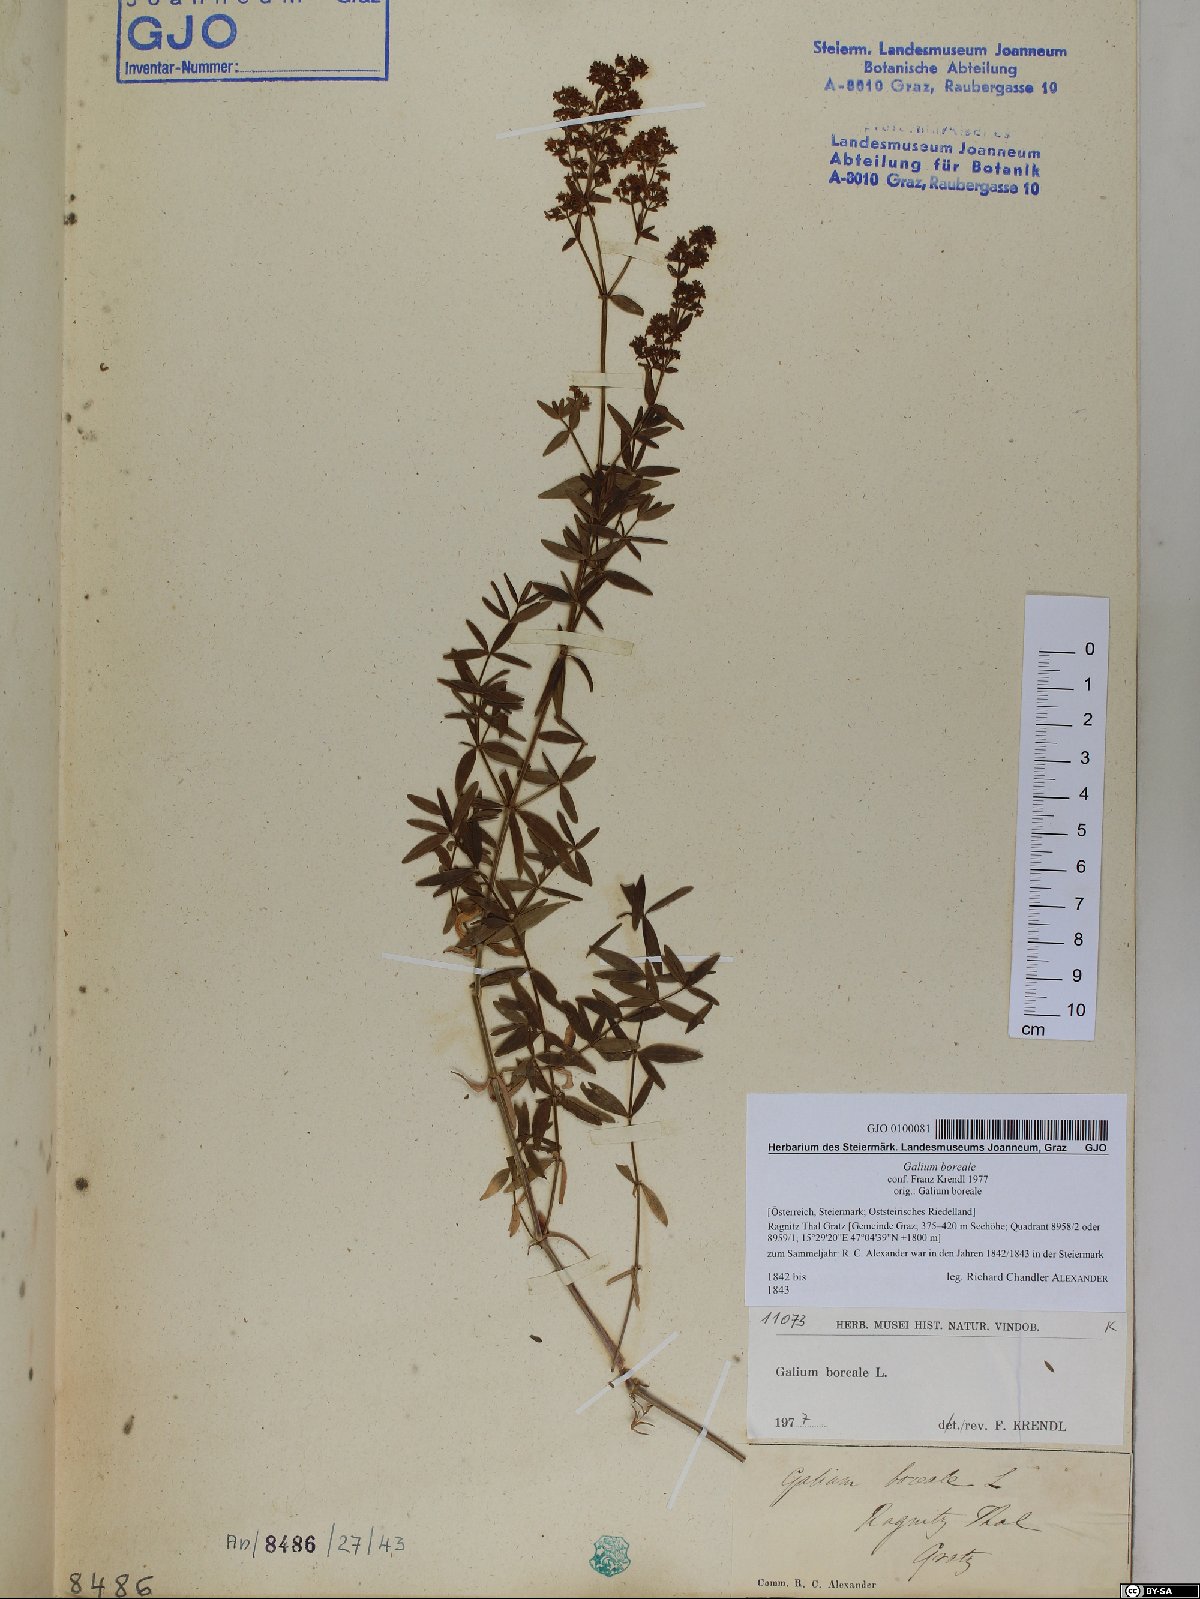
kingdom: Plantae
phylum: Tracheophyta
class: Magnoliopsida
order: Gentianales
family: Rubiaceae
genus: Galium
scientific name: Galium boreale
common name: Northern bedstraw
